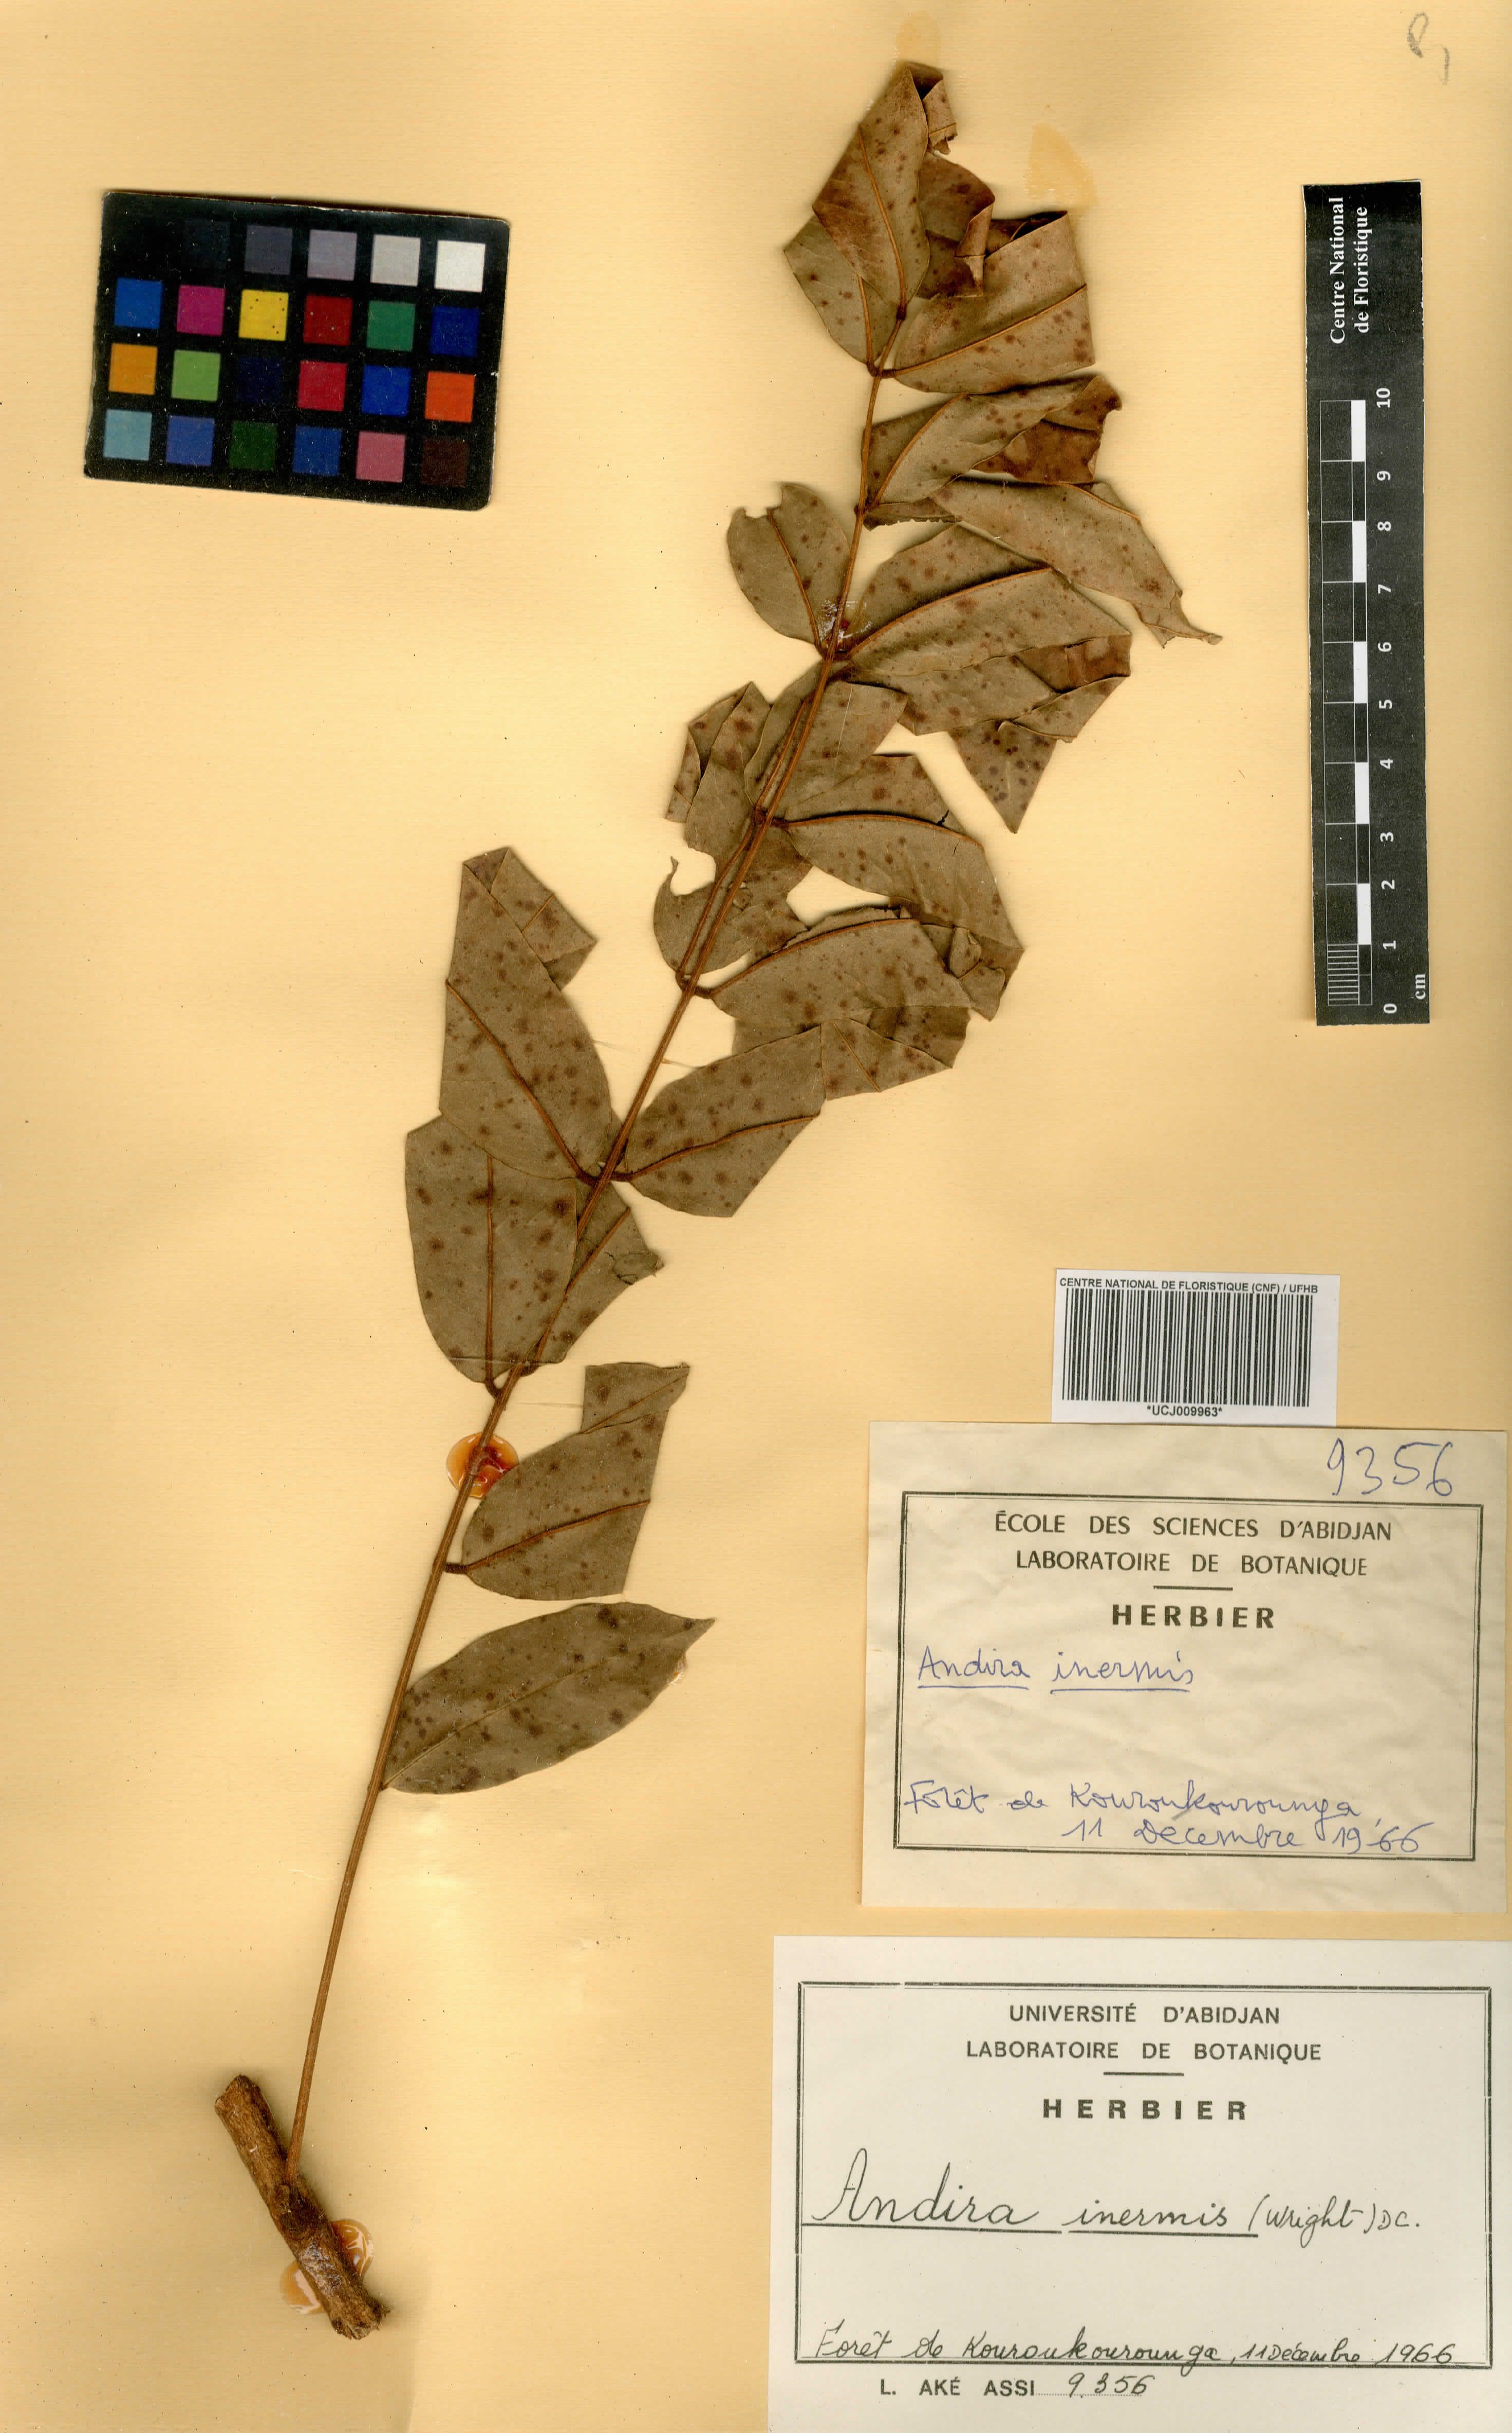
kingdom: Plantae
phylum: Tracheophyta
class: Magnoliopsida
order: Fabales
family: Fabaceae
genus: Andira
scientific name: Andira inermis
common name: Angelin
